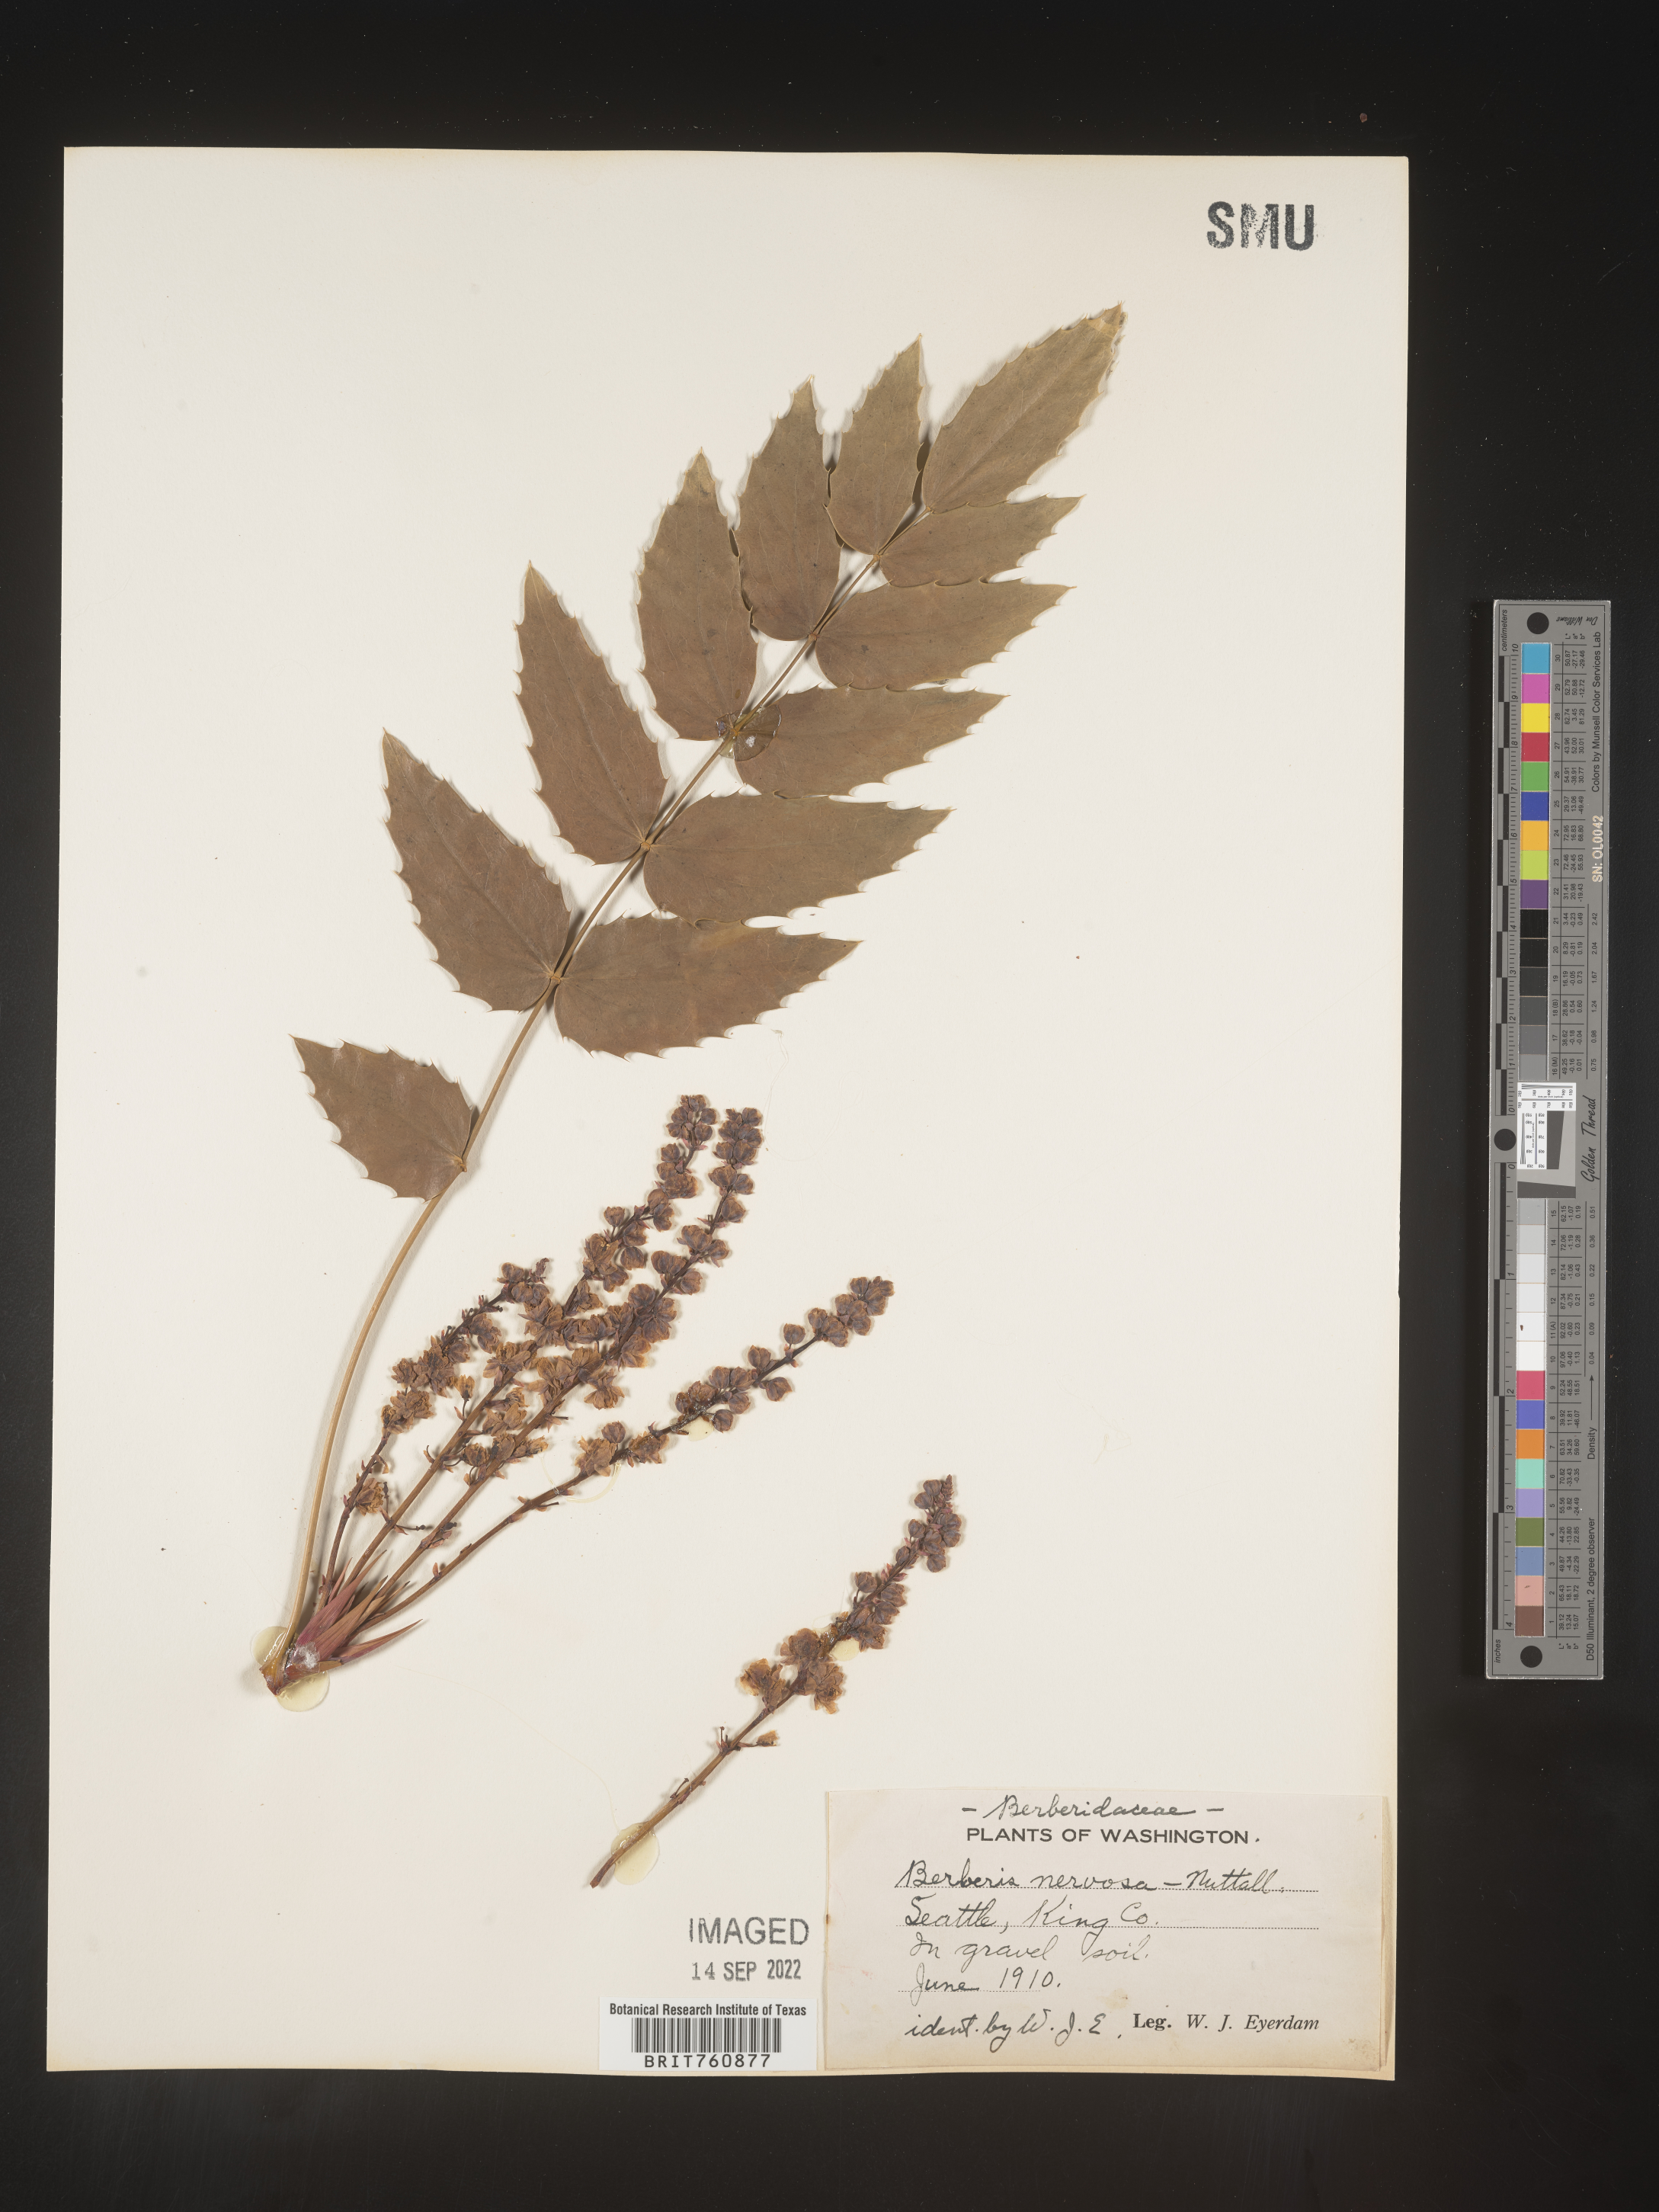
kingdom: Plantae
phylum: Tracheophyta
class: Magnoliopsida
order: Ranunculales
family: Berberidaceae
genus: Mahonia
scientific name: Mahonia
